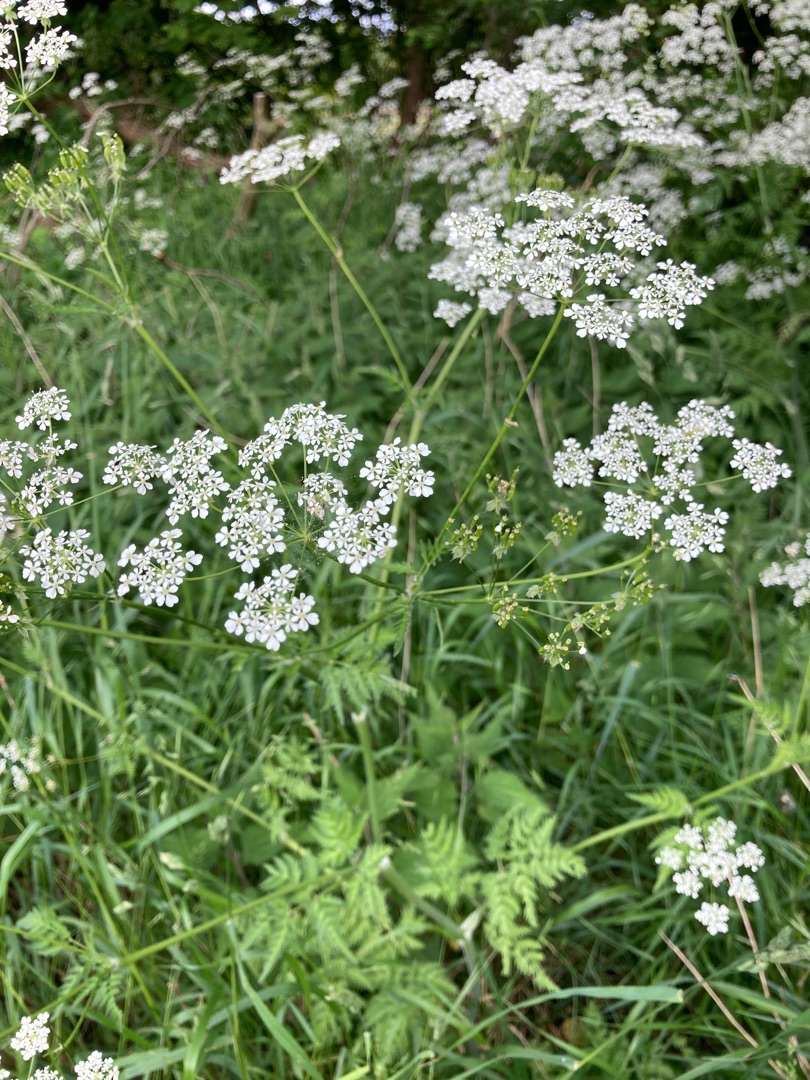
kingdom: Plantae
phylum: Tracheophyta
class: Magnoliopsida
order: Apiales
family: Apiaceae
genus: Anthriscus
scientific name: Anthriscus sylvestris
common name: Vild kørvel
